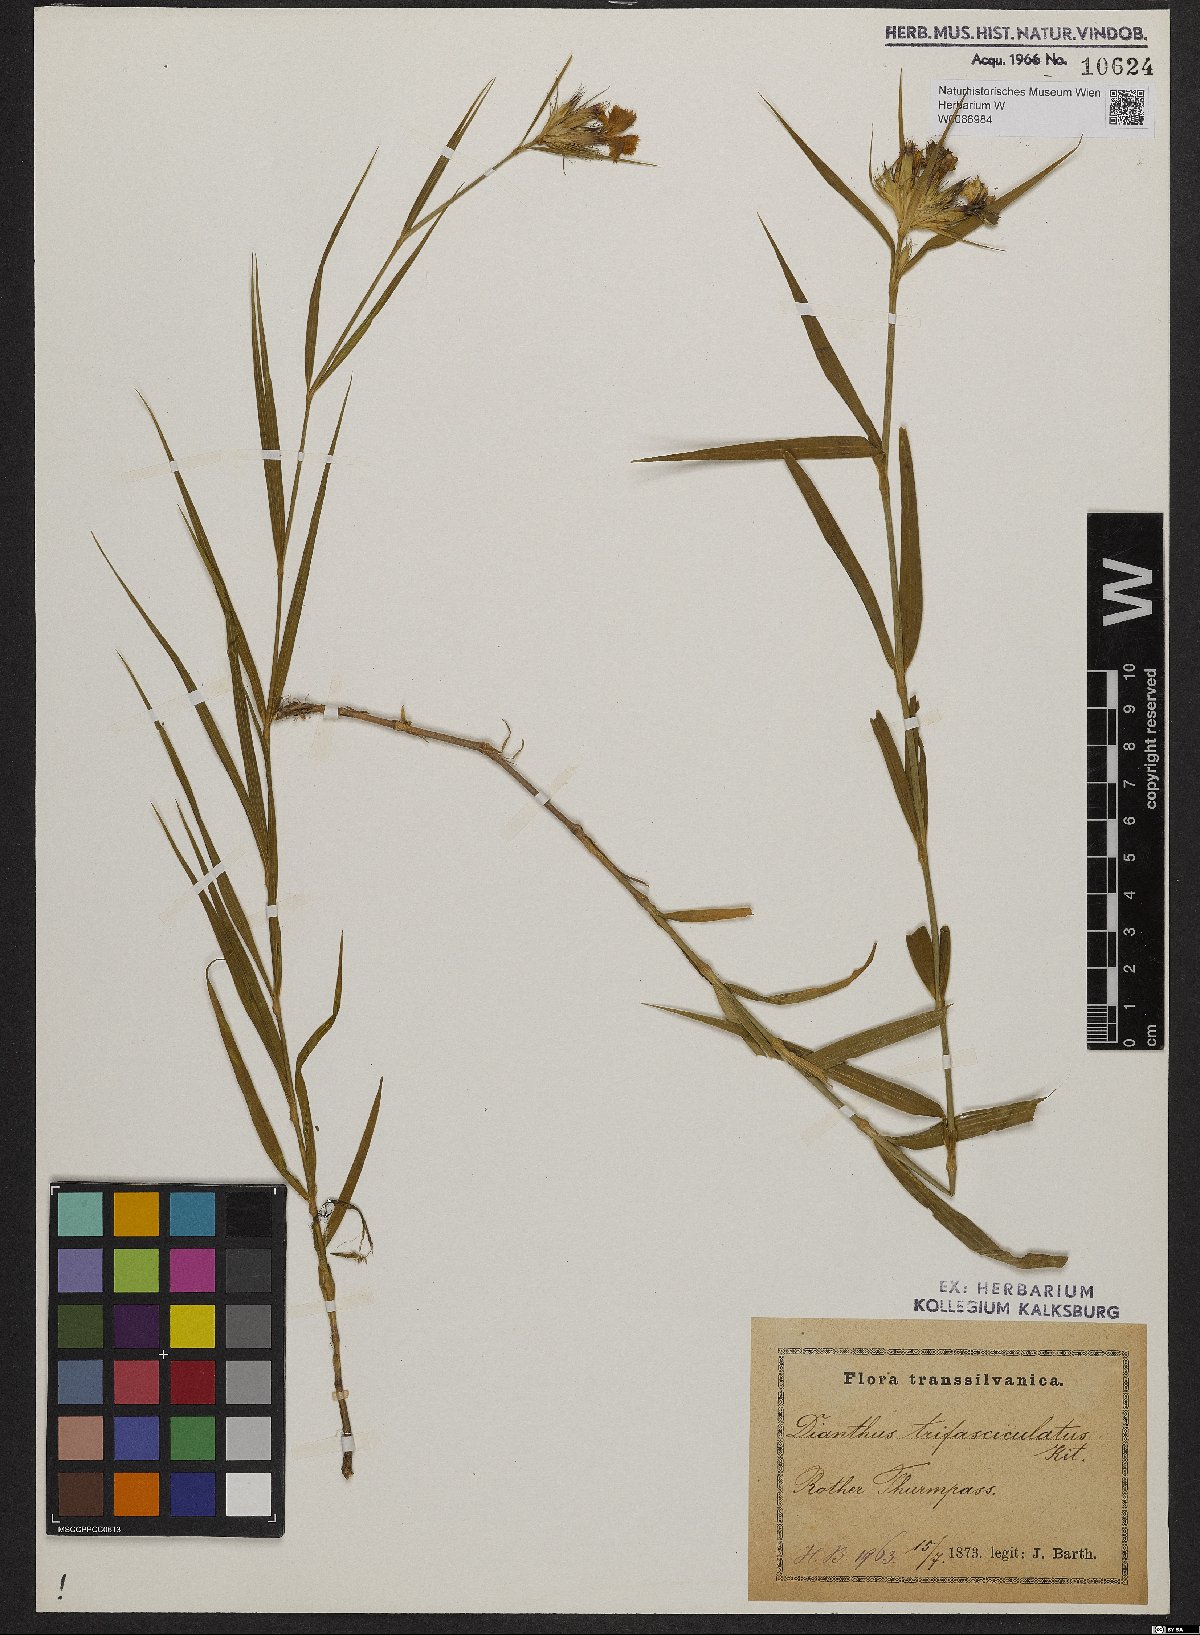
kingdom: Plantae
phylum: Tracheophyta
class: Magnoliopsida
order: Caryophyllales
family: Caryophyllaceae
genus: Dianthus
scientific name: Dianthus trifasciculatus
